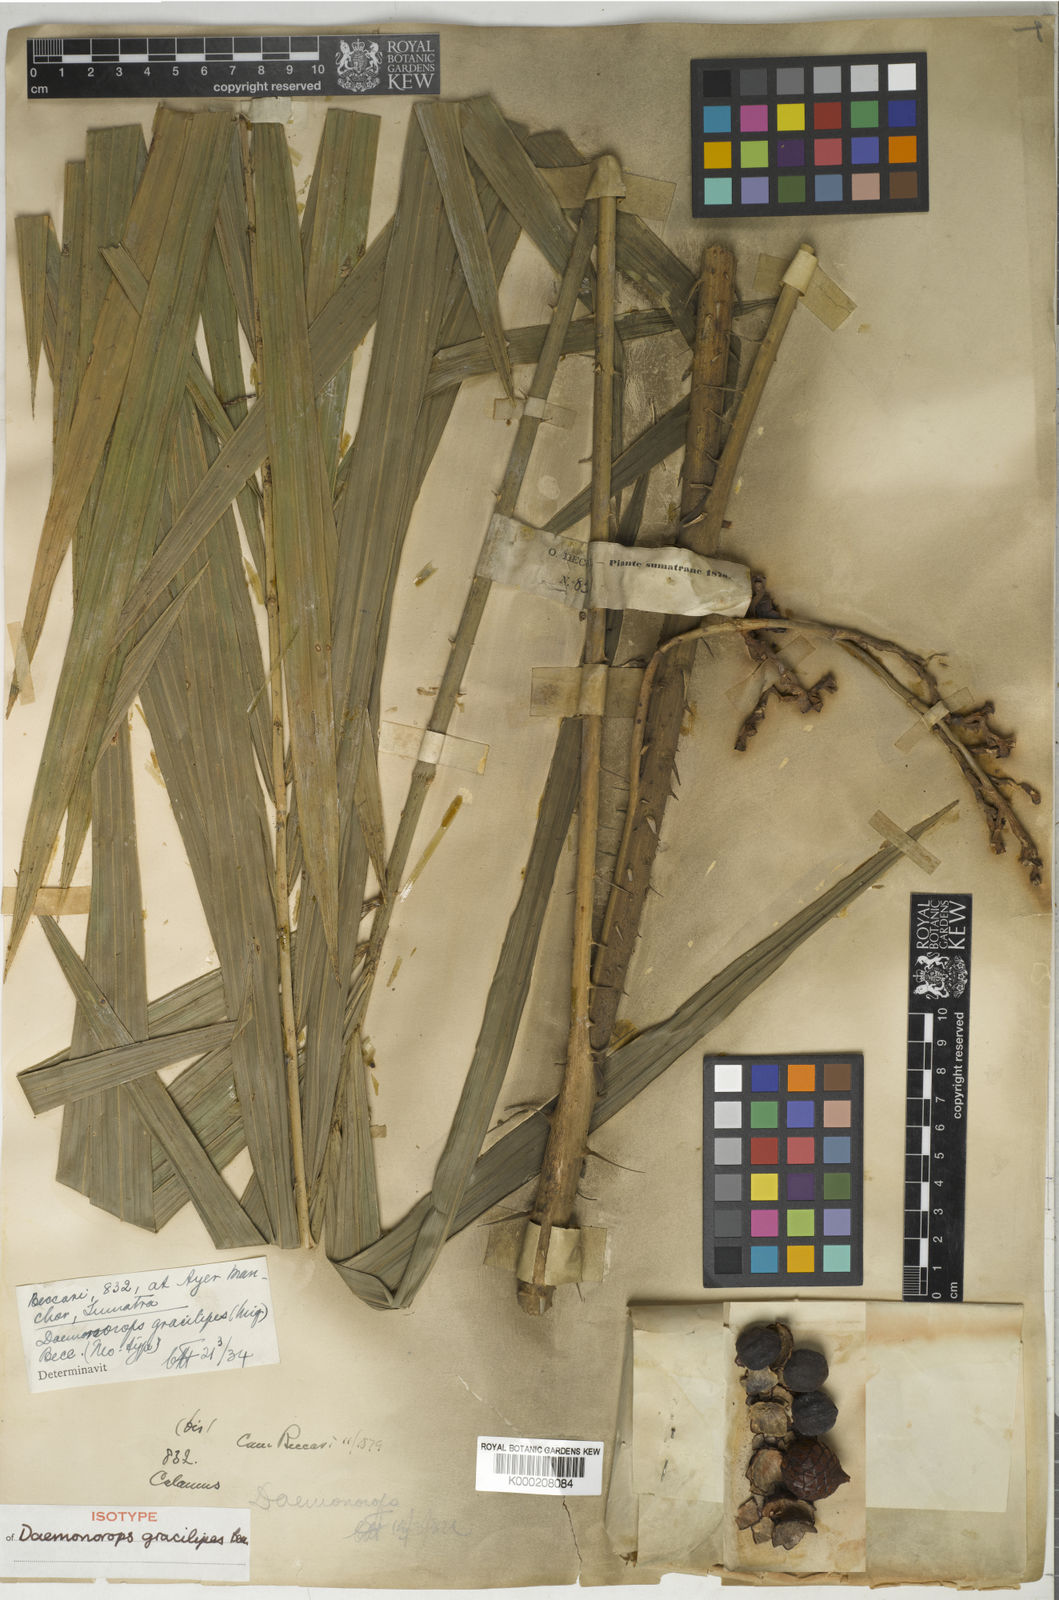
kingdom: Plantae
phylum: Tracheophyta
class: Liliopsida
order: Arecales
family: Arecaceae
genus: Daemonorops
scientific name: Daemonorops
